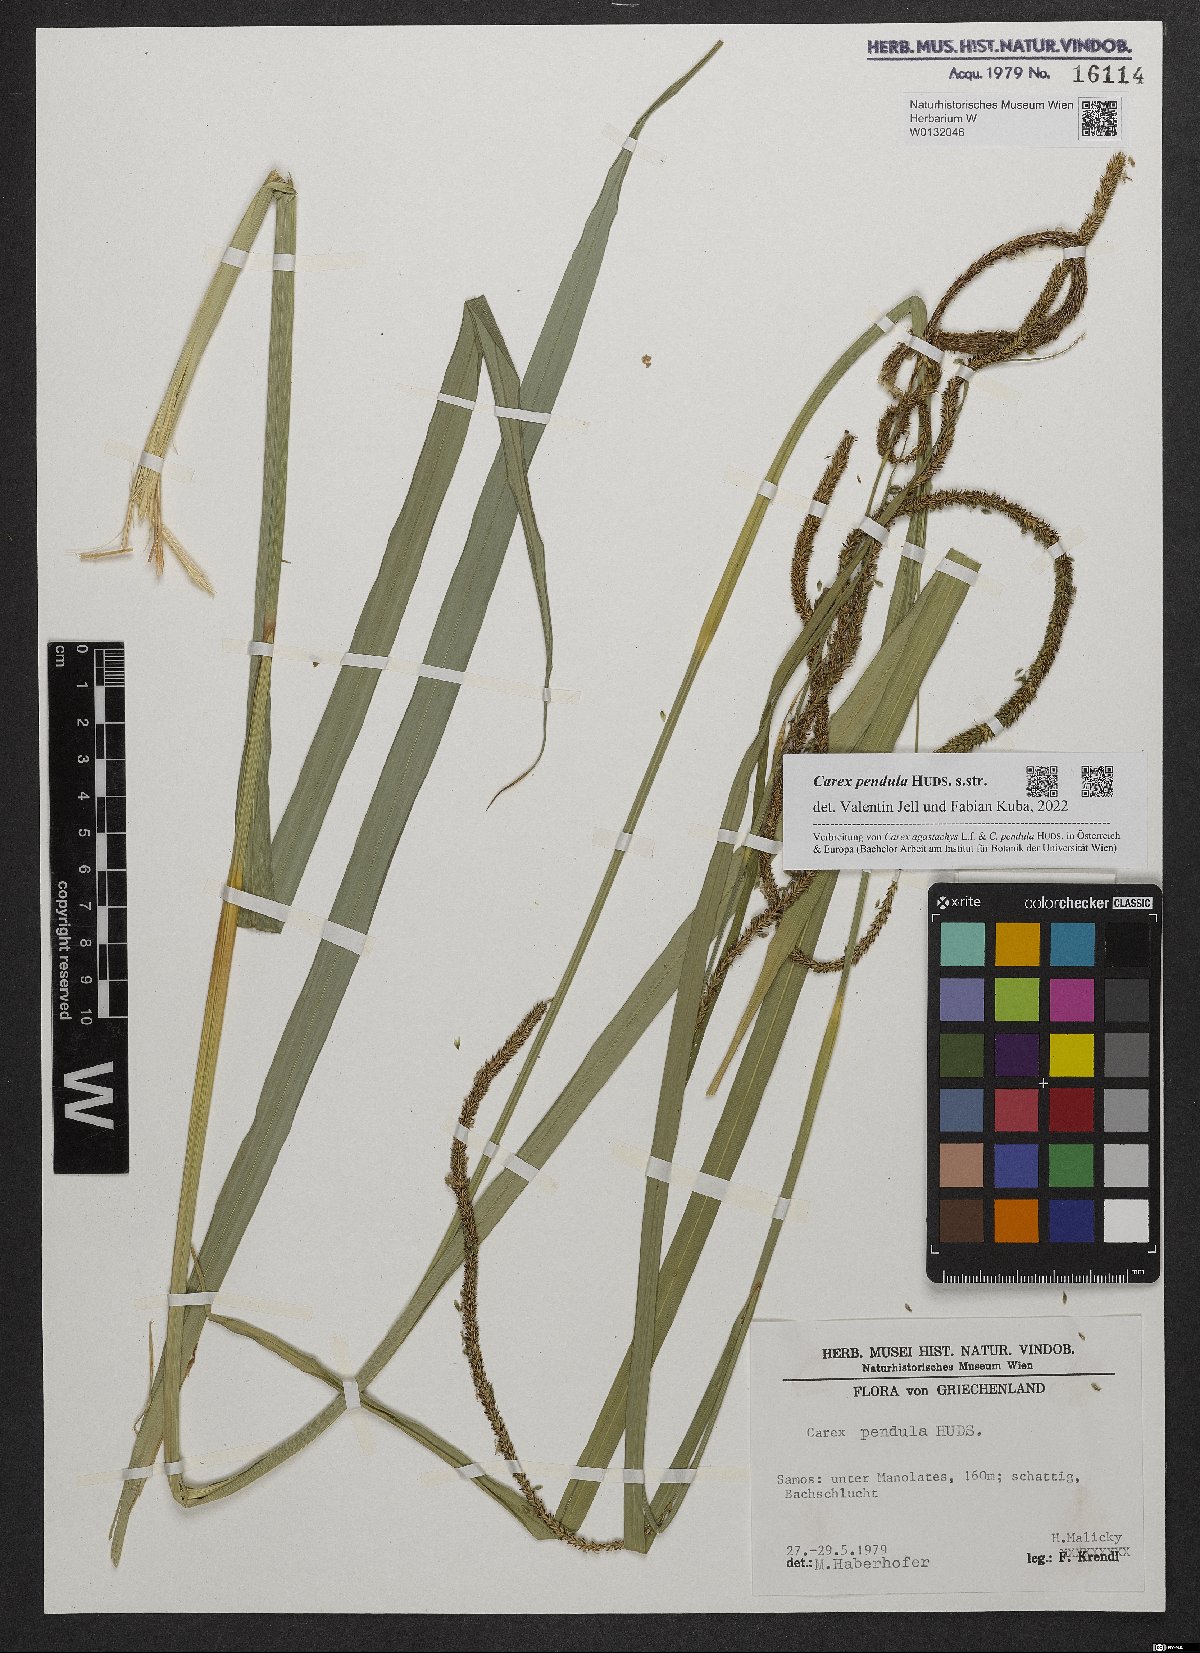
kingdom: Plantae
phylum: Tracheophyta
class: Liliopsida
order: Poales
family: Cyperaceae
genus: Carex
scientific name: Carex pendula
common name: Pendulous sedge
